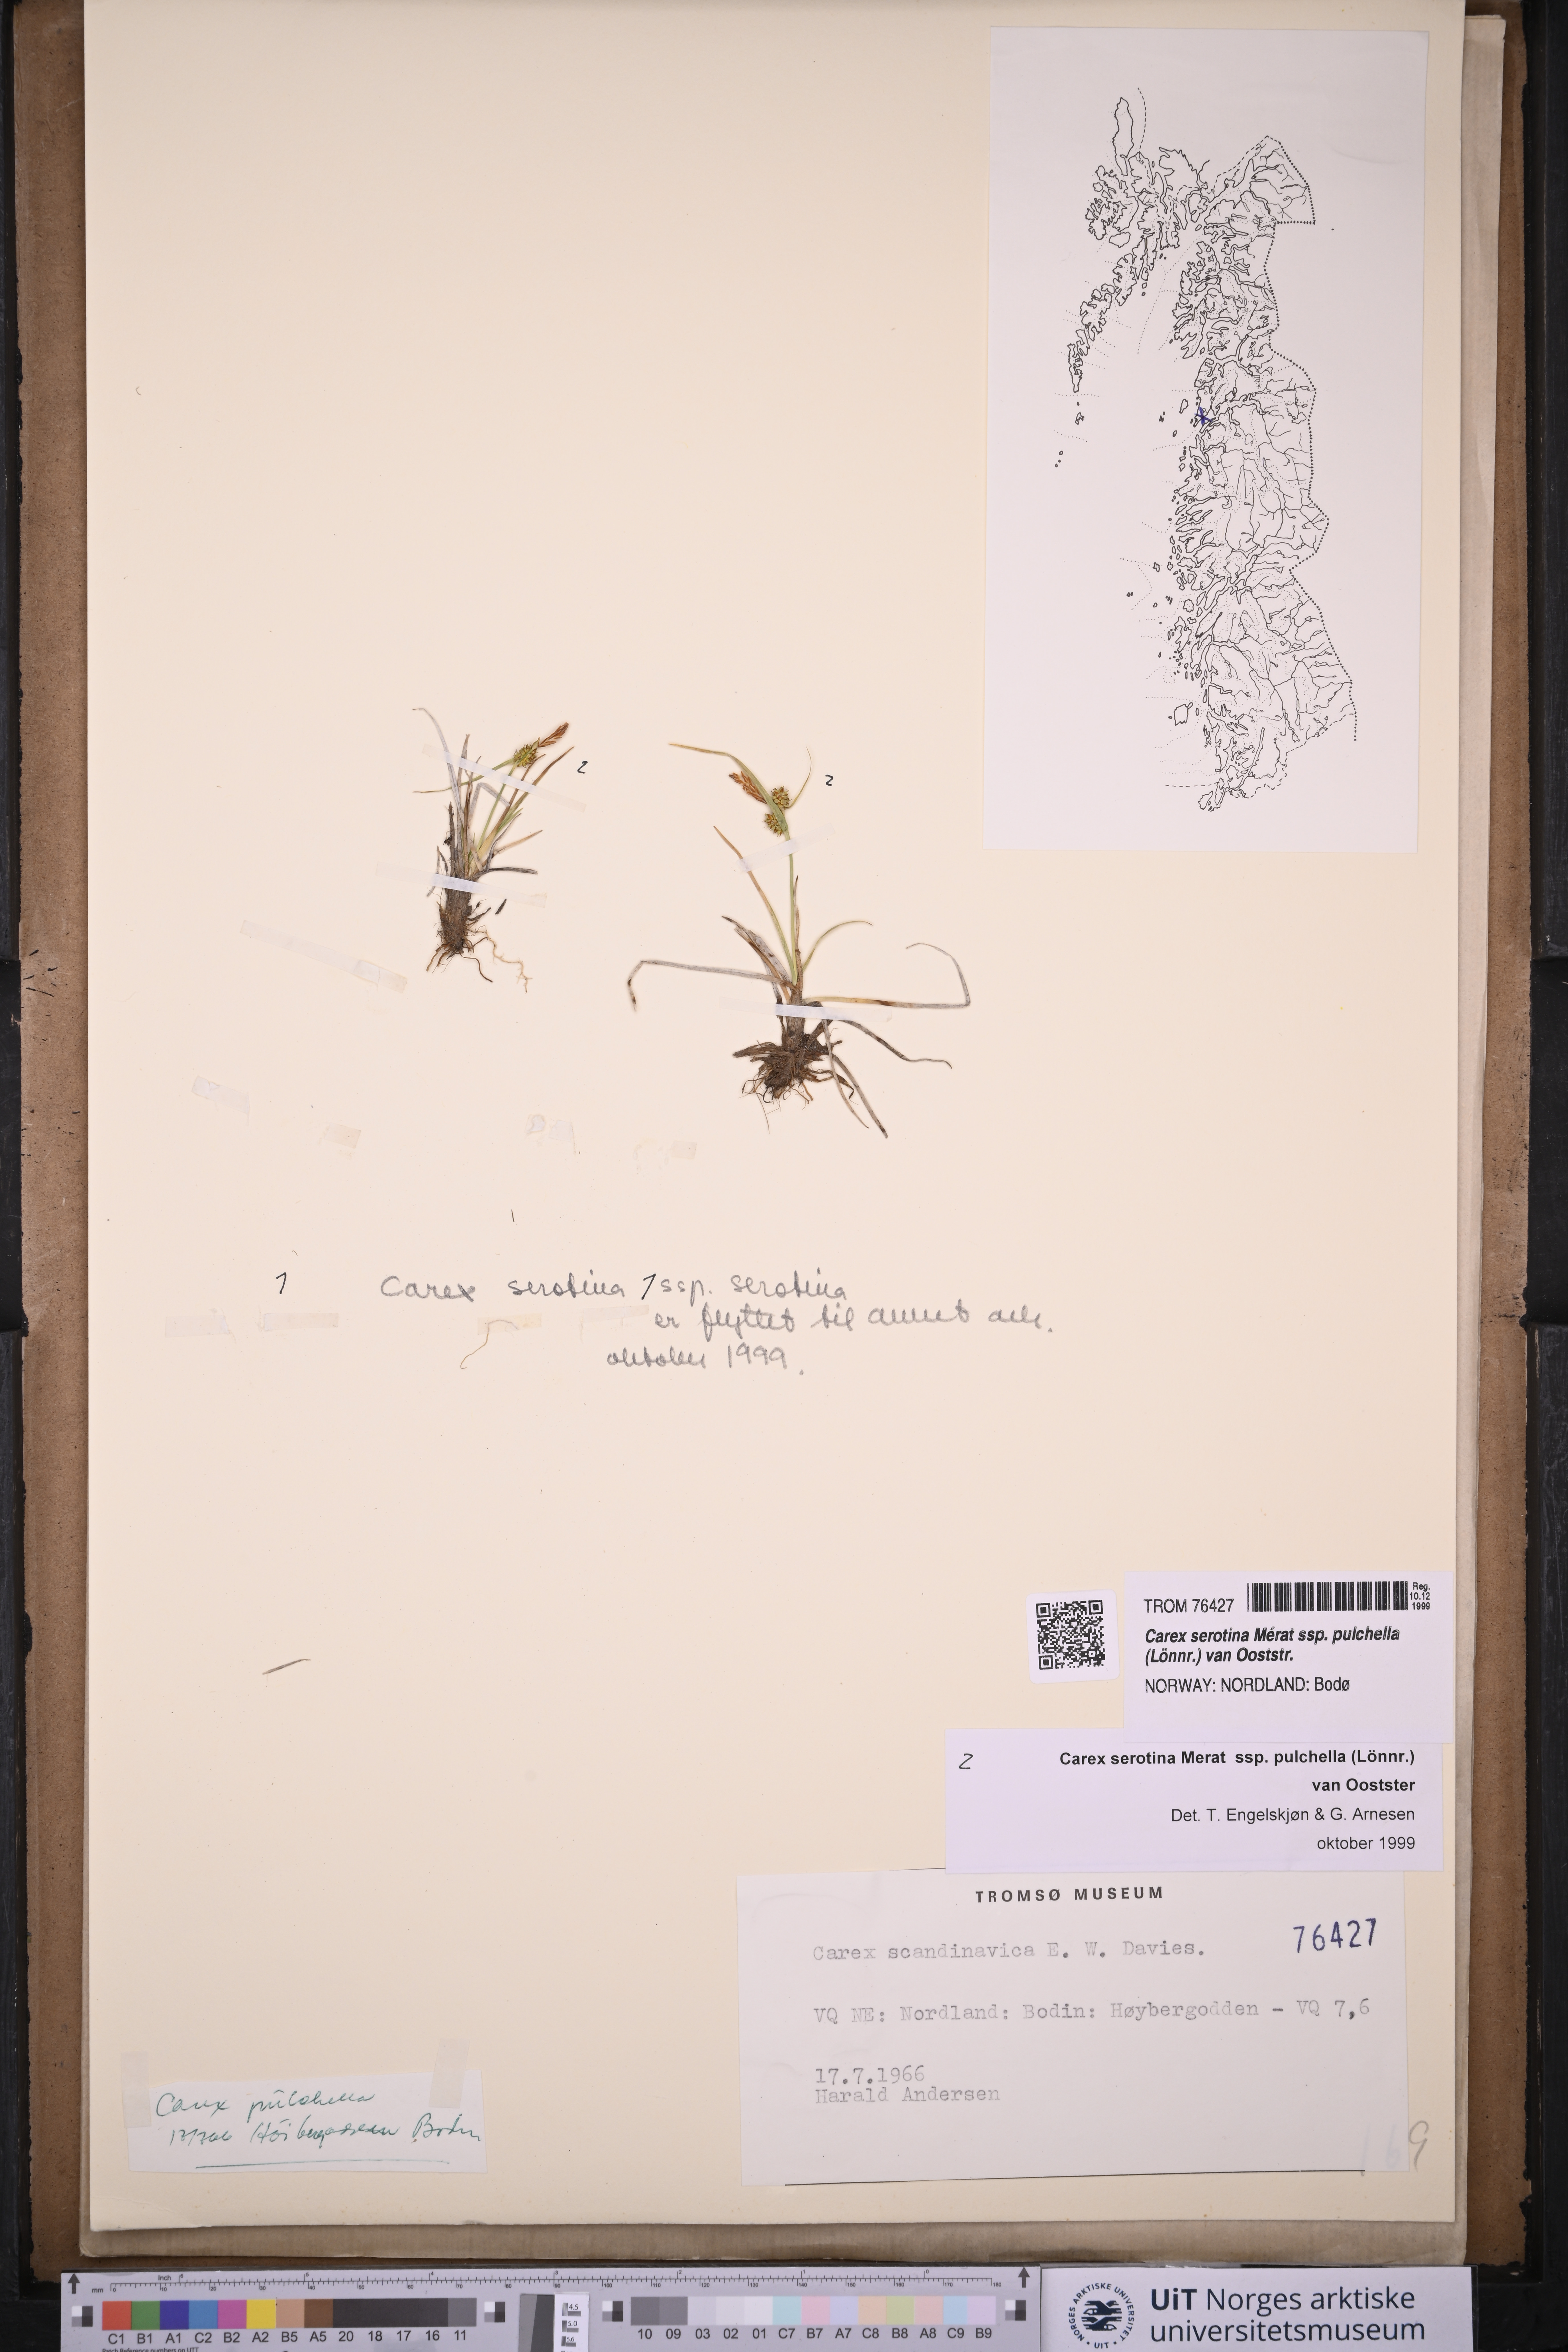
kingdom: Plantae
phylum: Tracheophyta
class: Liliopsida
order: Poales
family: Cyperaceae
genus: Carex
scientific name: Carex oederi
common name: Common & small-fruited yellow-sedge
